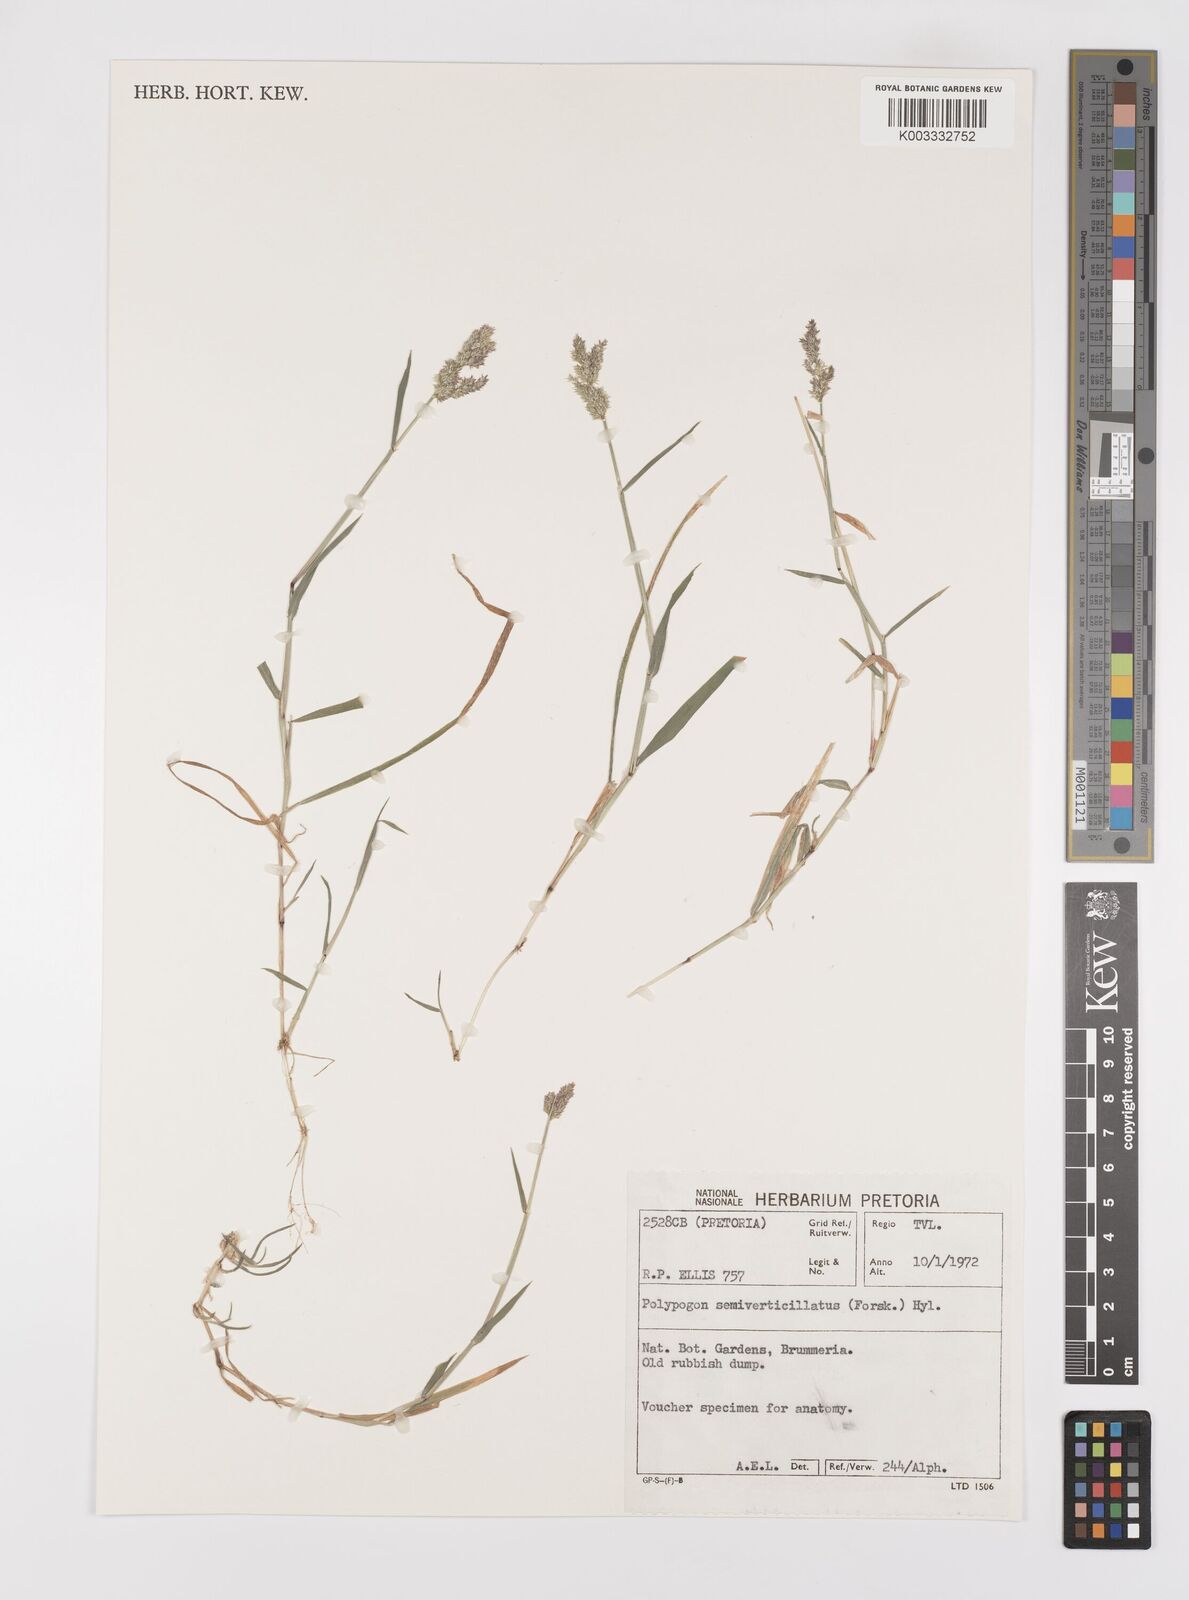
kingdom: Plantae
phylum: Tracheophyta
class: Liliopsida
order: Poales
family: Poaceae
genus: Polypogon
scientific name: Polypogon viridis
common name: Water bent
